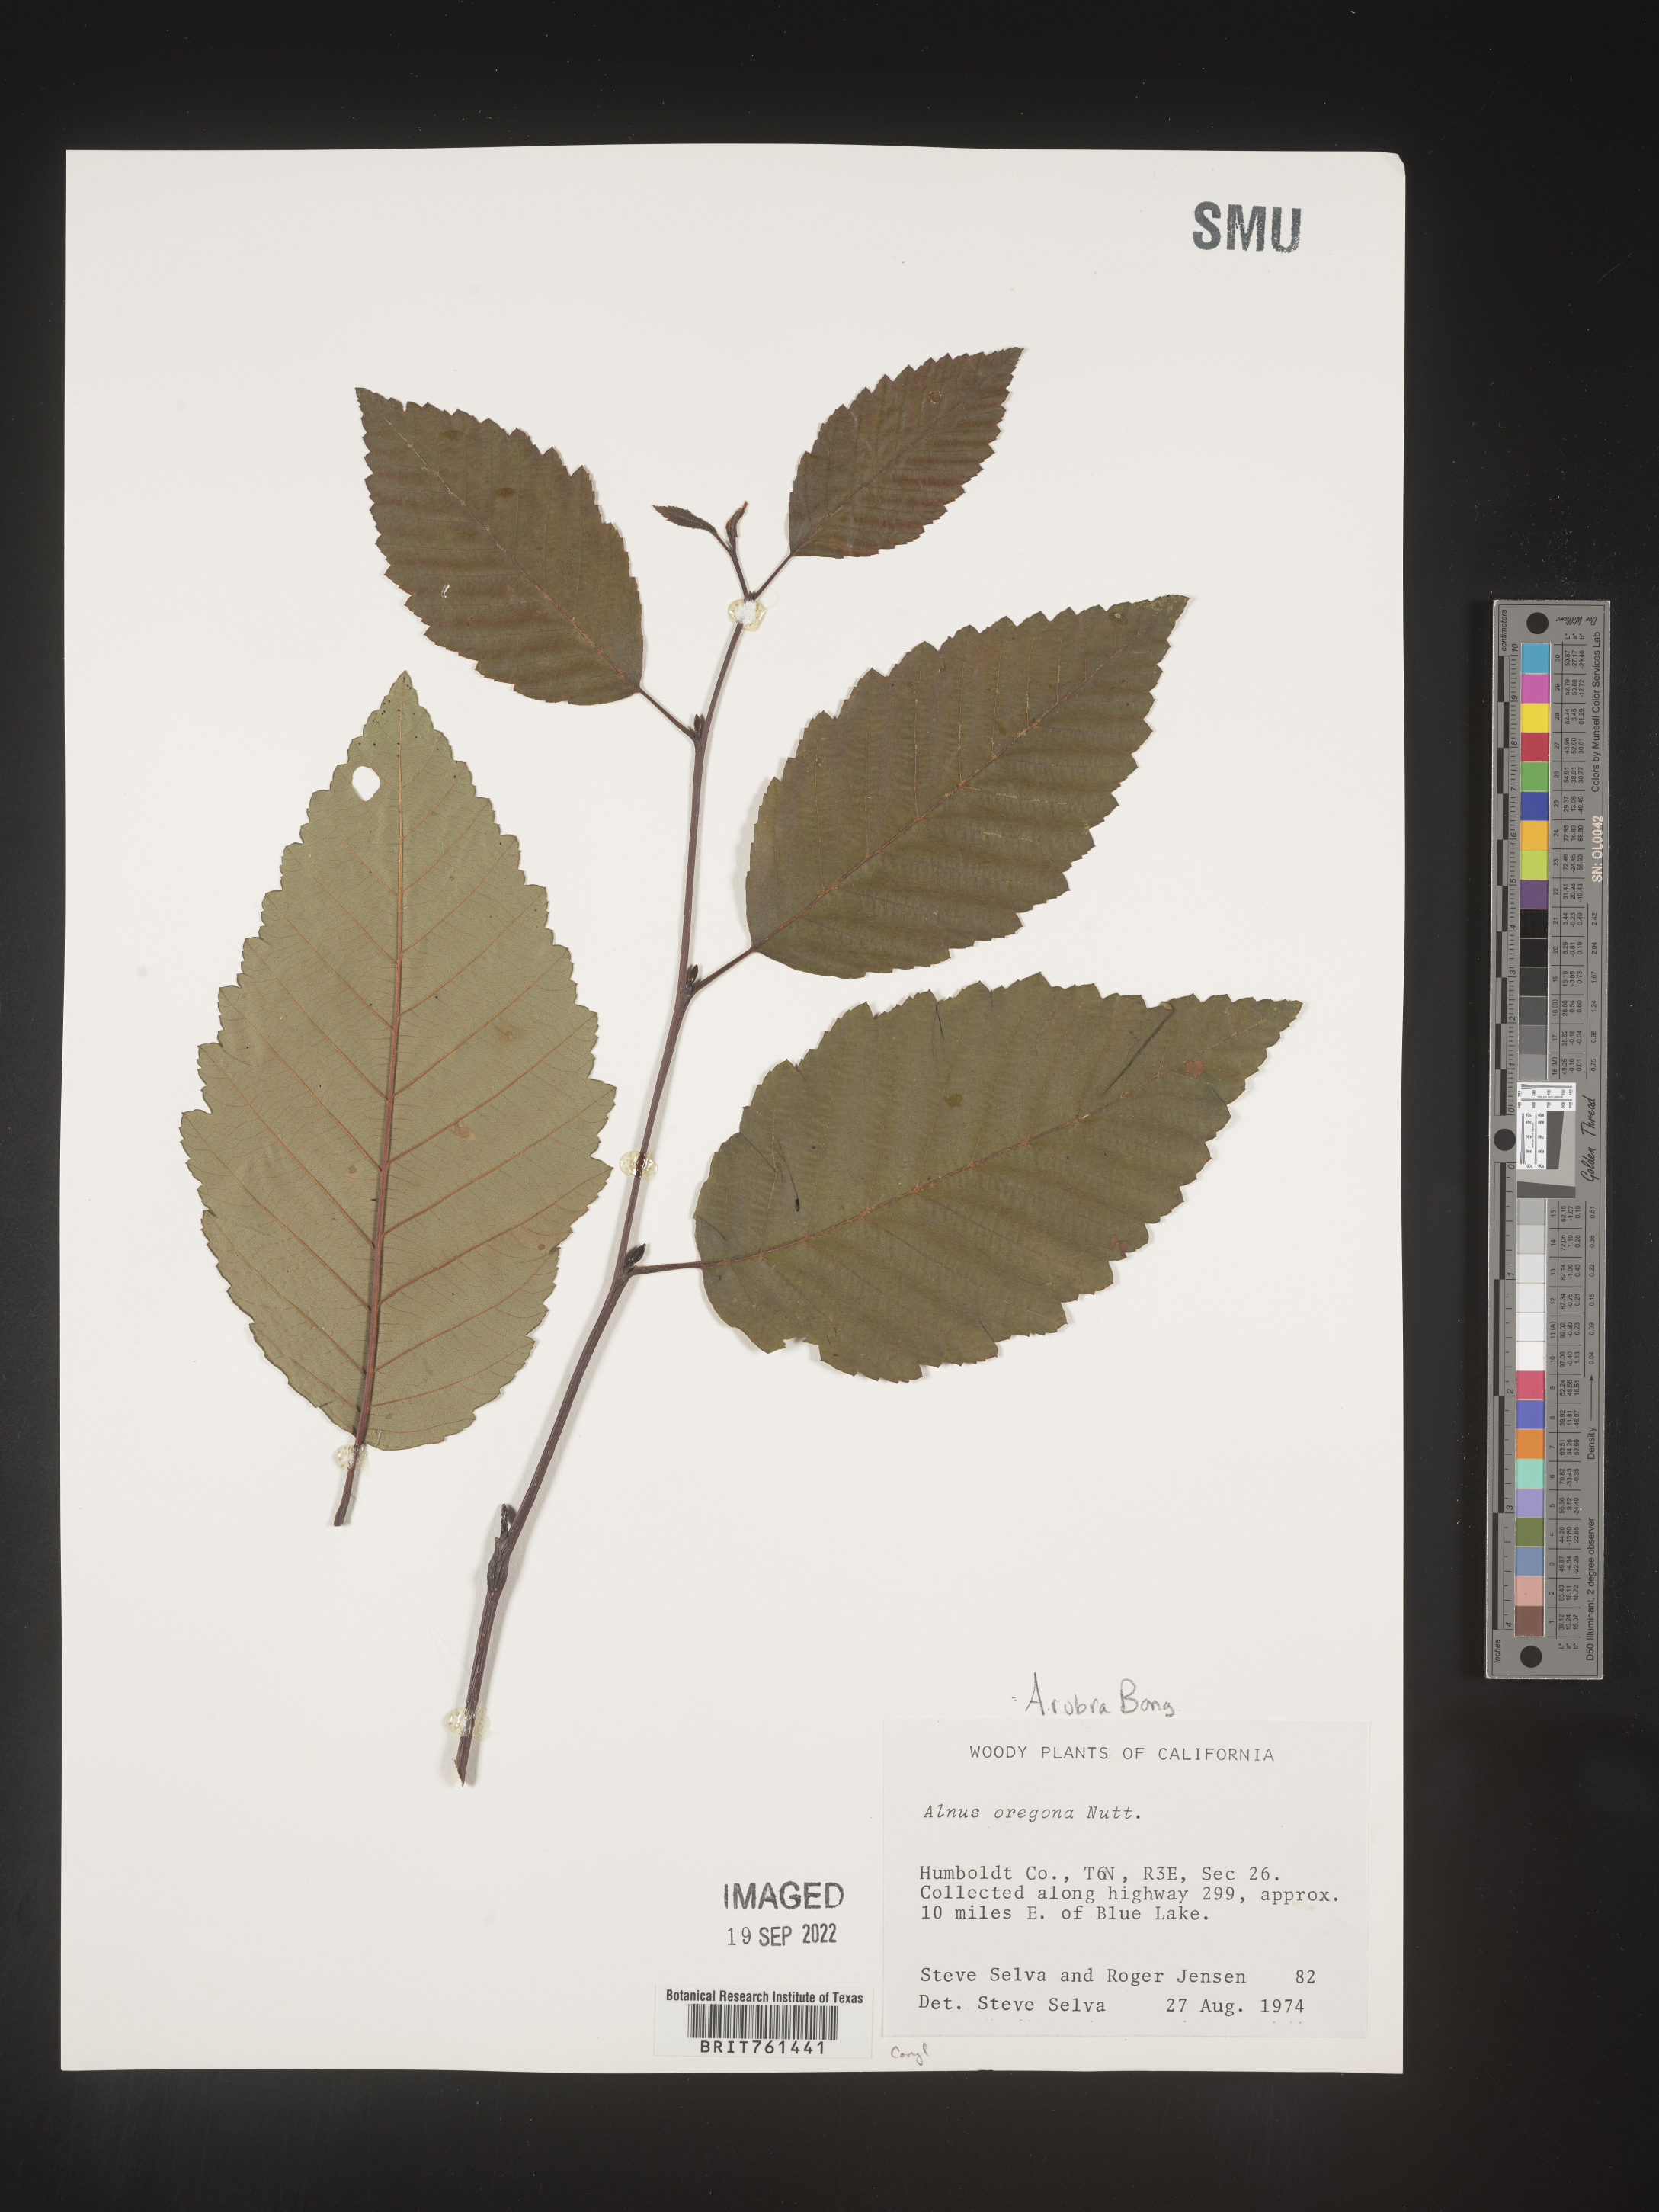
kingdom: Plantae
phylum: Tracheophyta
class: Magnoliopsida
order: Fagales
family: Betulaceae
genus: Alnus
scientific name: Alnus rubra
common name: Red alder
